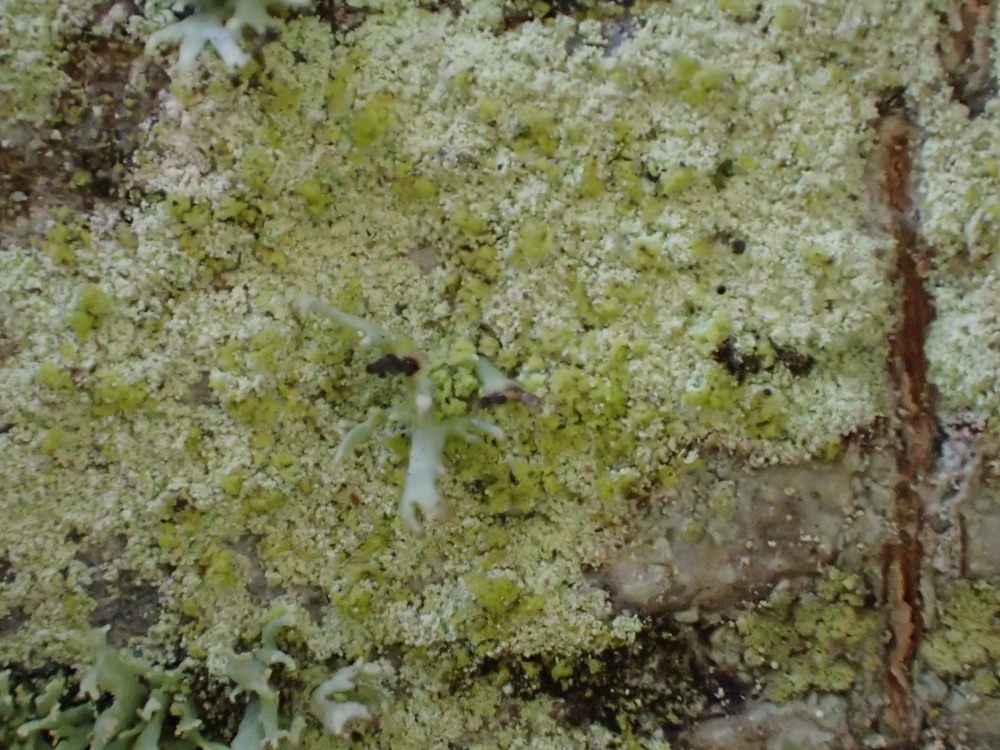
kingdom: Fungi
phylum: Ascomycota
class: Lecanoromycetes
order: Lecanorales
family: Lecanoraceae
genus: Lecanora
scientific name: Lecanora expallens
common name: bleggul kantskivelav
